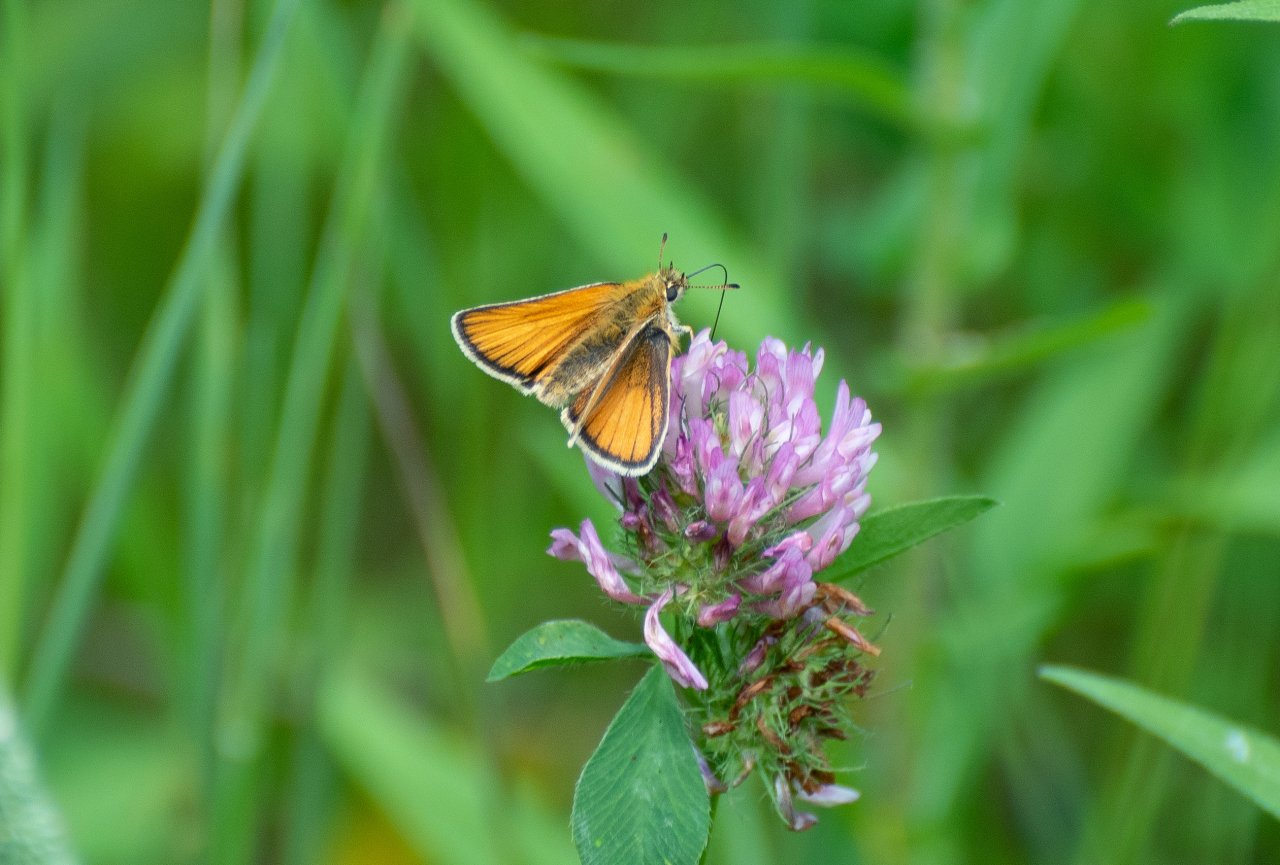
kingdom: Animalia
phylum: Arthropoda
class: Insecta
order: Lepidoptera
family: Hesperiidae
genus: Thymelicus
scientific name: Thymelicus lineola
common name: European Skipper
